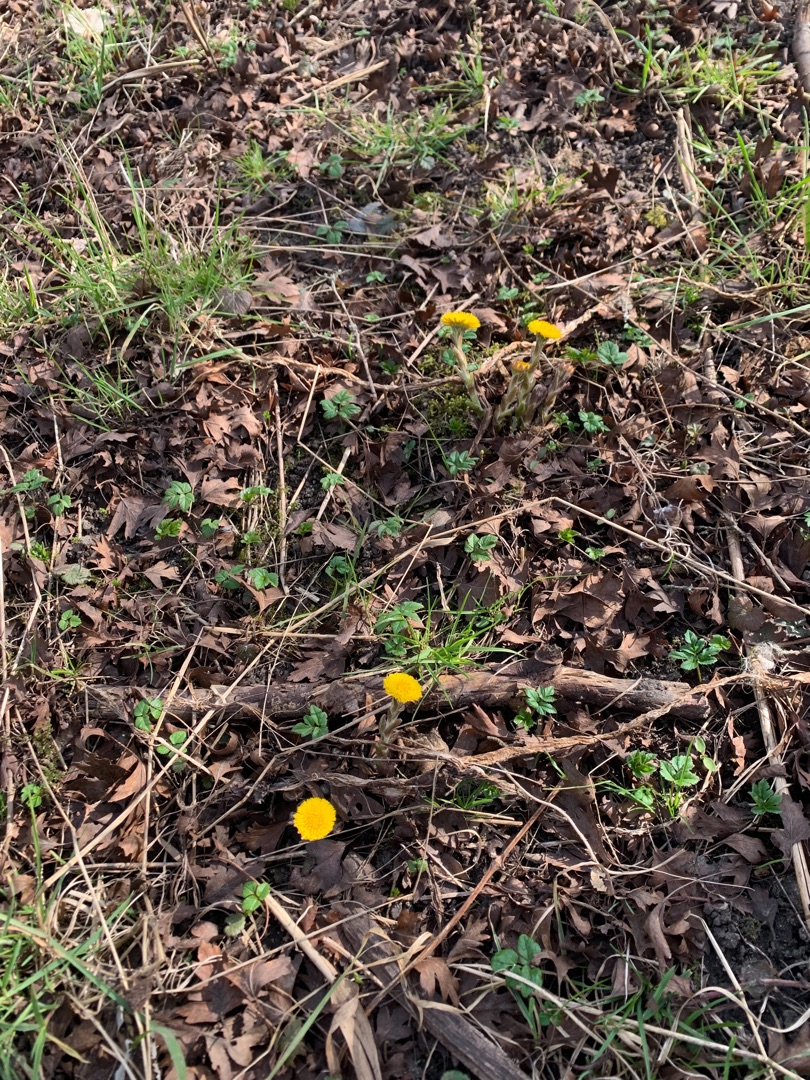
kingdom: Plantae
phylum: Tracheophyta
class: Magnoliopsida
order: Asterales
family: Asteraceae
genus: Tussilago
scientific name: Tussilago farfara
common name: Følfod
